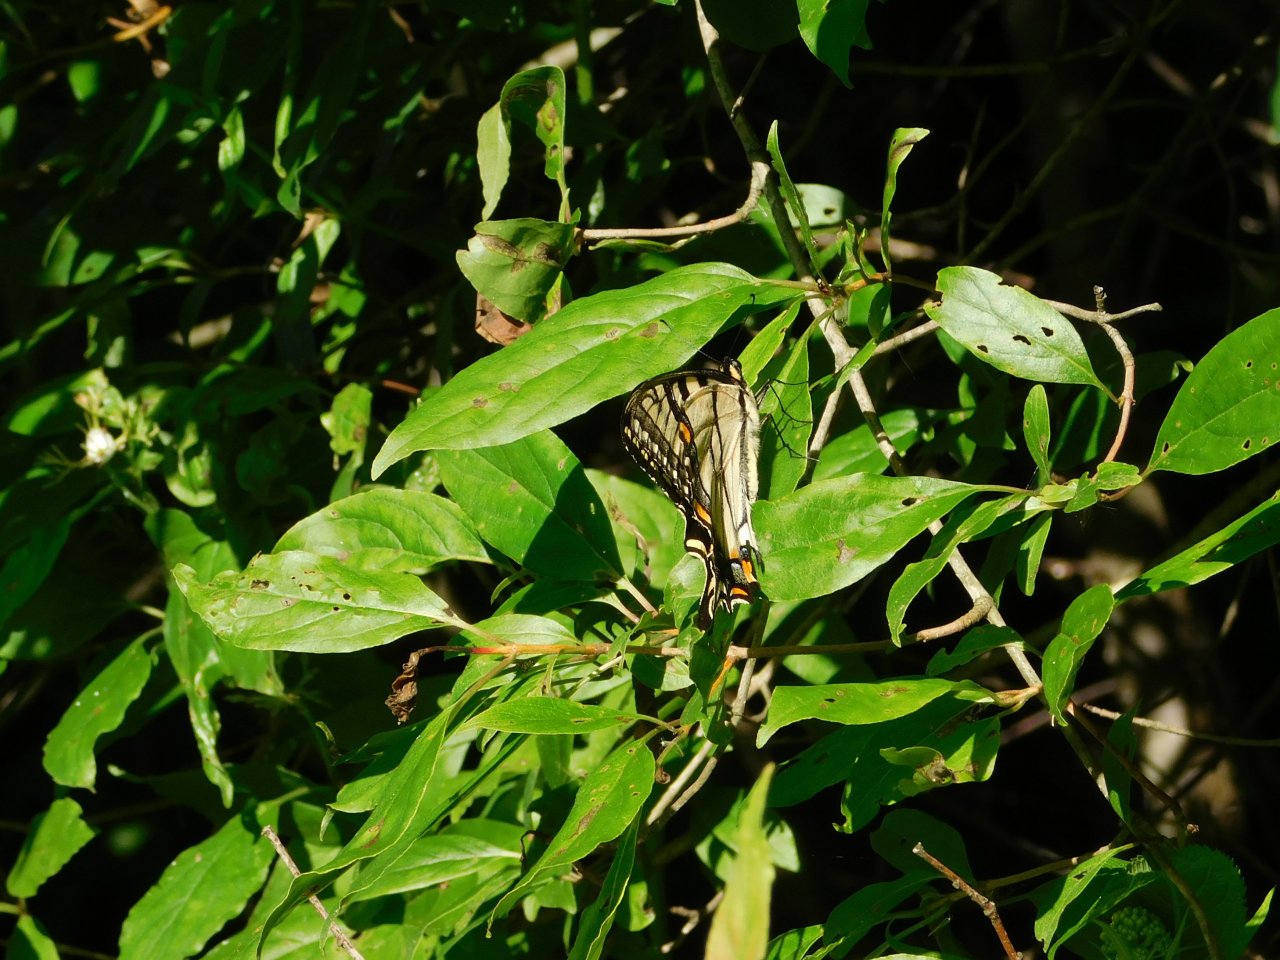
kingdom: Animalia
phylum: Arthropoda
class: Insecta
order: Lepidoptera
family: Papilionidae
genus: Pterourus
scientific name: Pterourus glaucus
